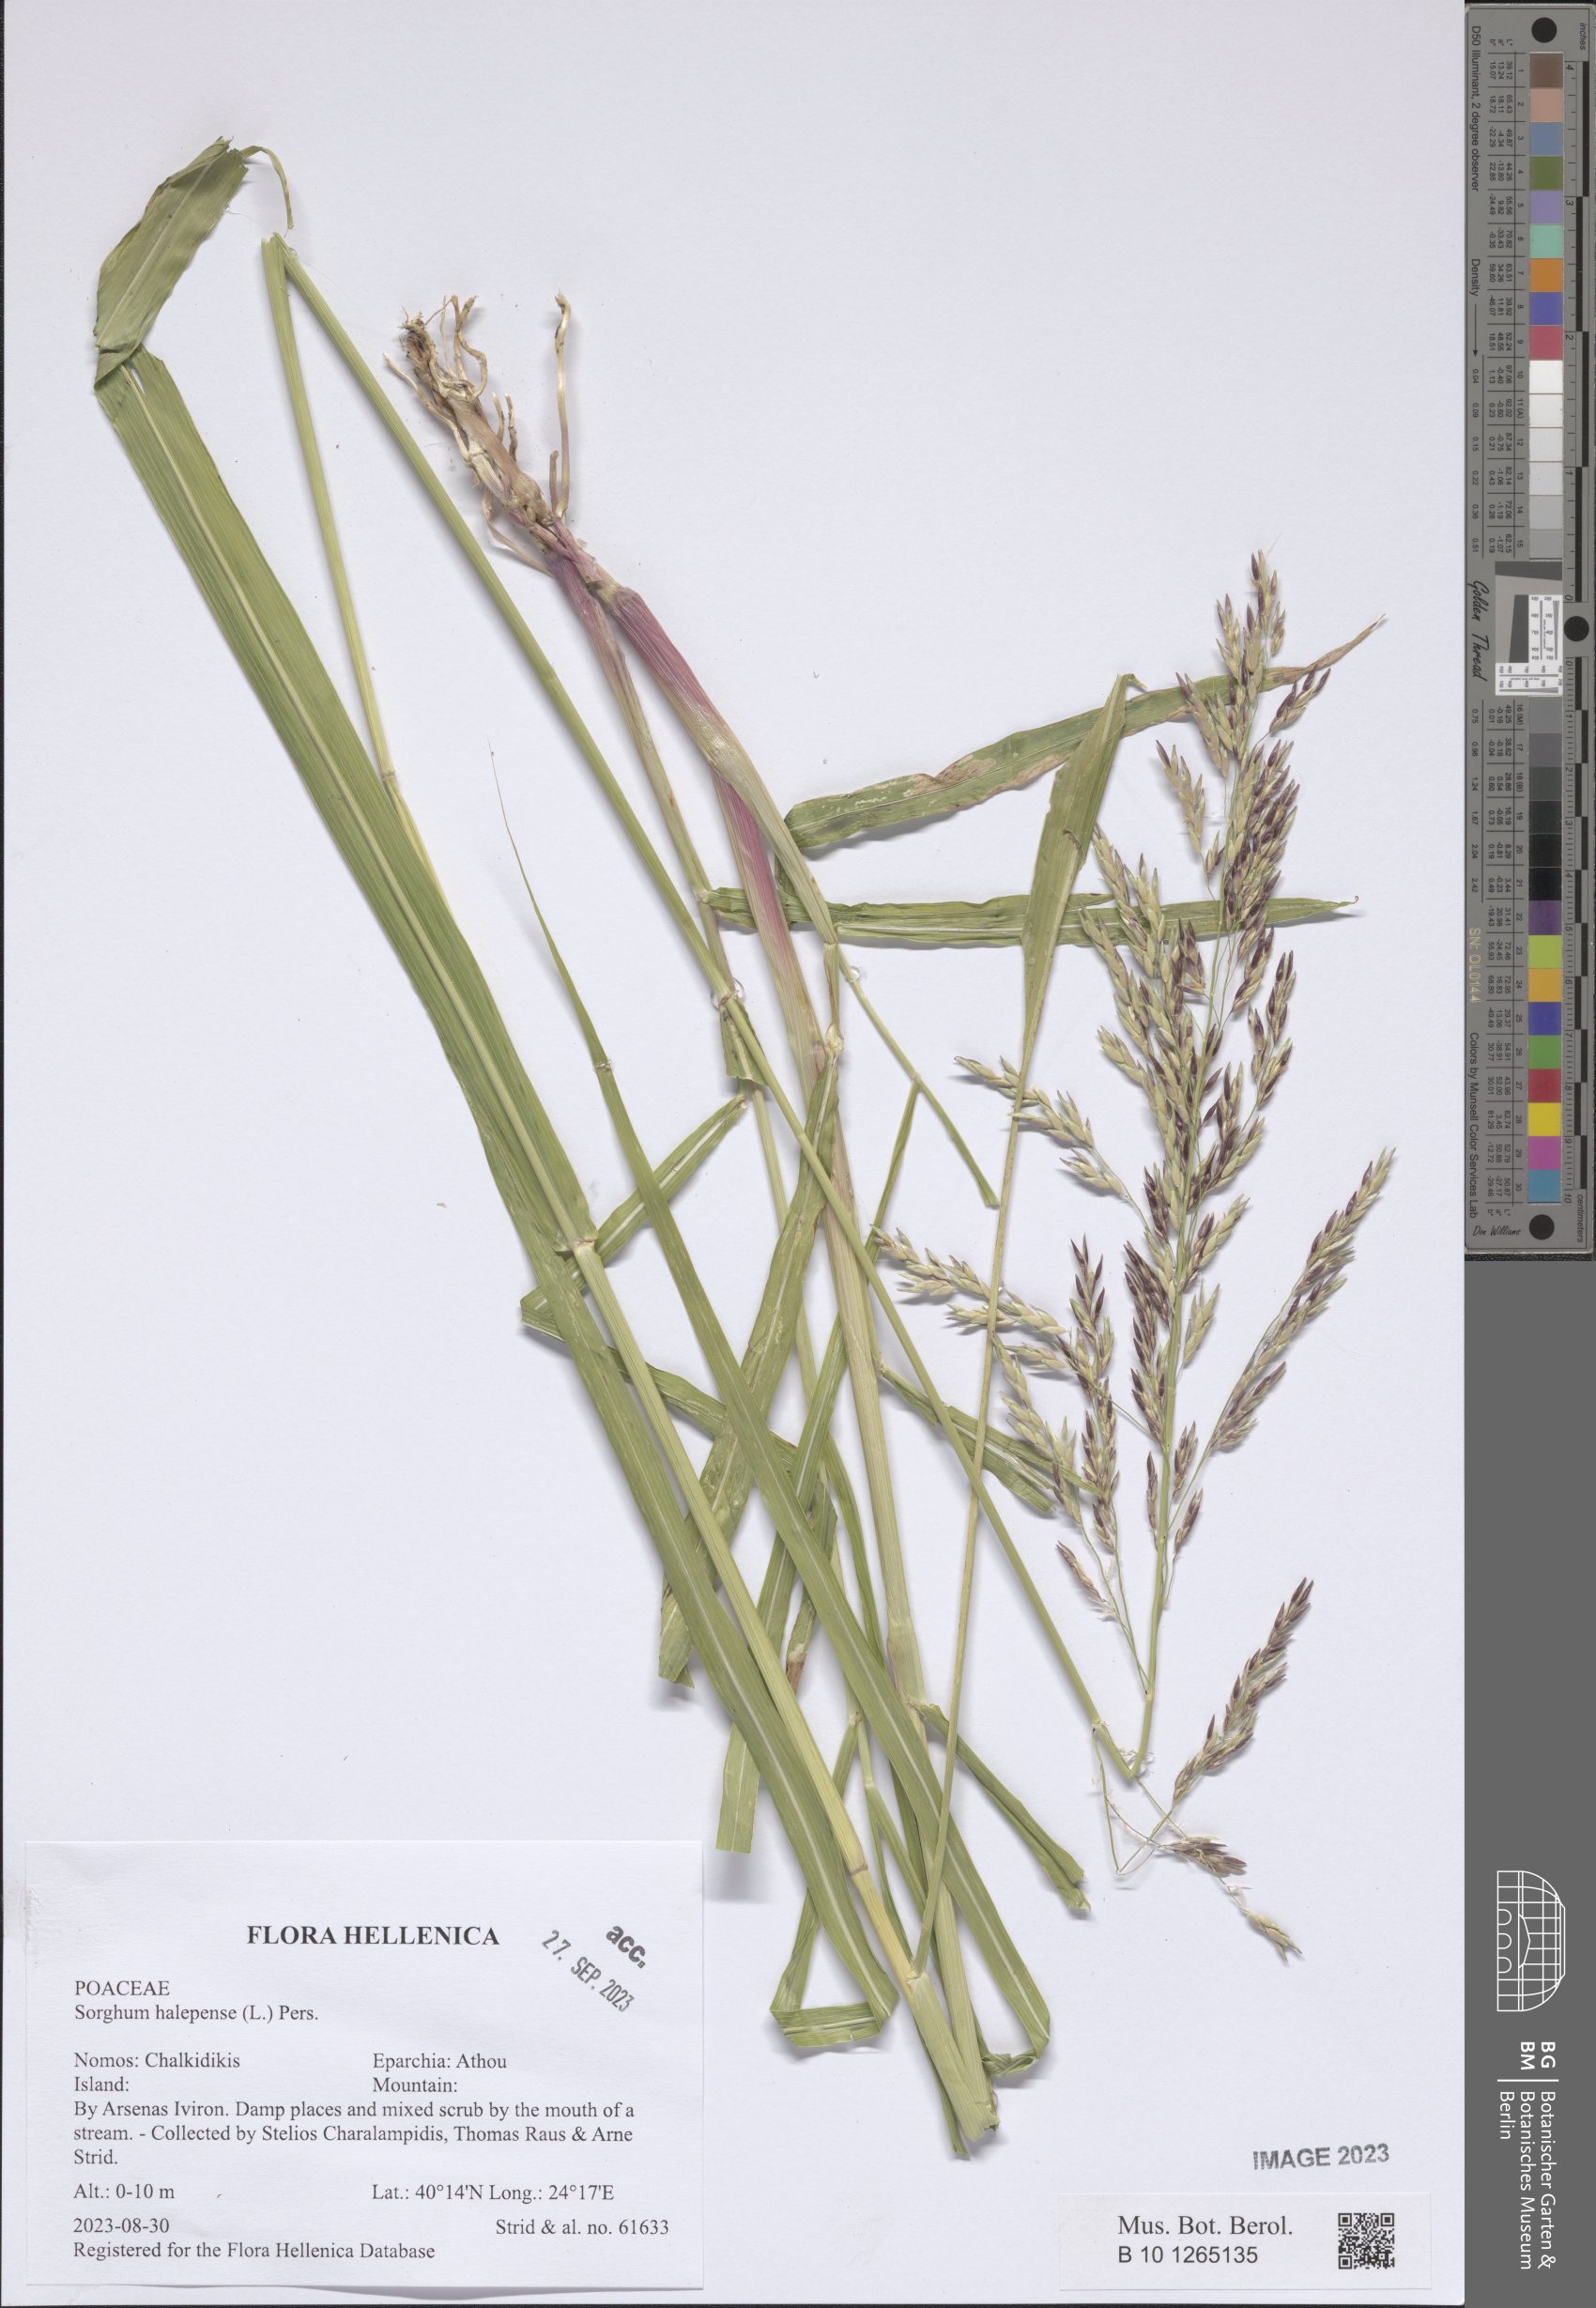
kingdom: Plantae
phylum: Tracheophyta
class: Liliopsida
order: Poales
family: Poaceae
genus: Sorghum
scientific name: Sorghum halepense
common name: Johnson-grass
